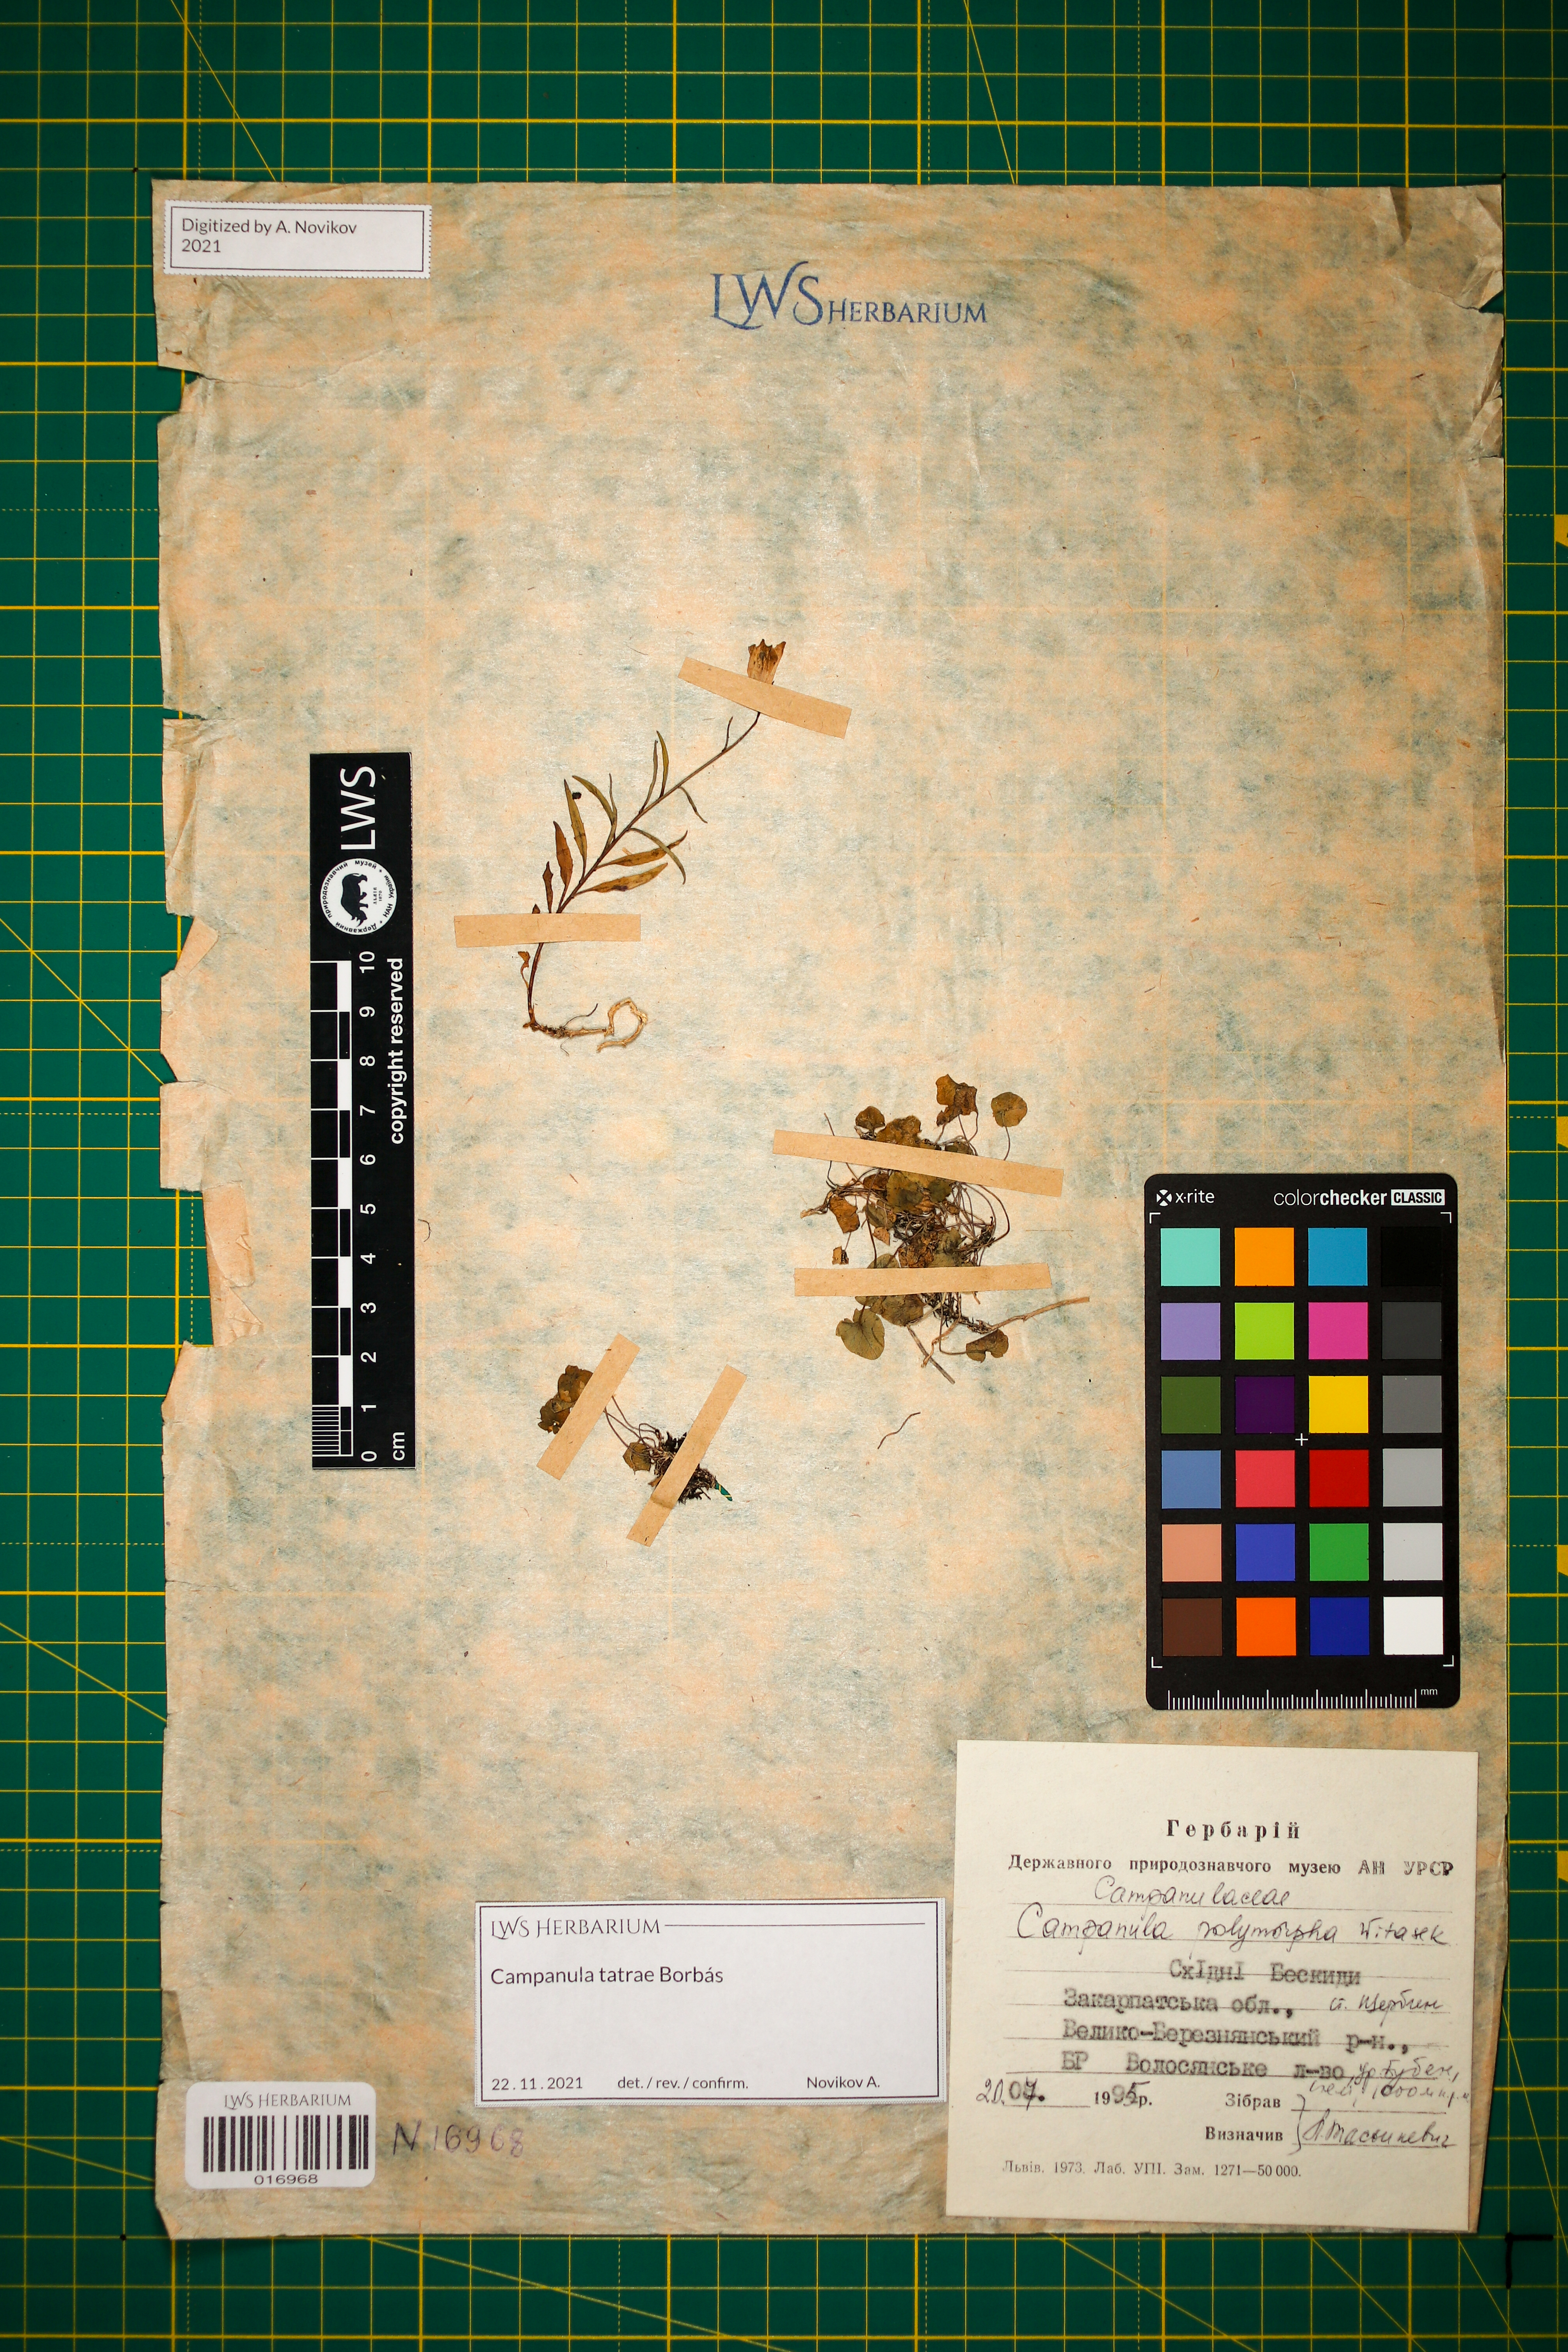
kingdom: Plantae
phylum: Tracheophyta
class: Magnoliopsida
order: Asterales
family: Campanulaceae
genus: Campanula
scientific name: Campanula tatrae
